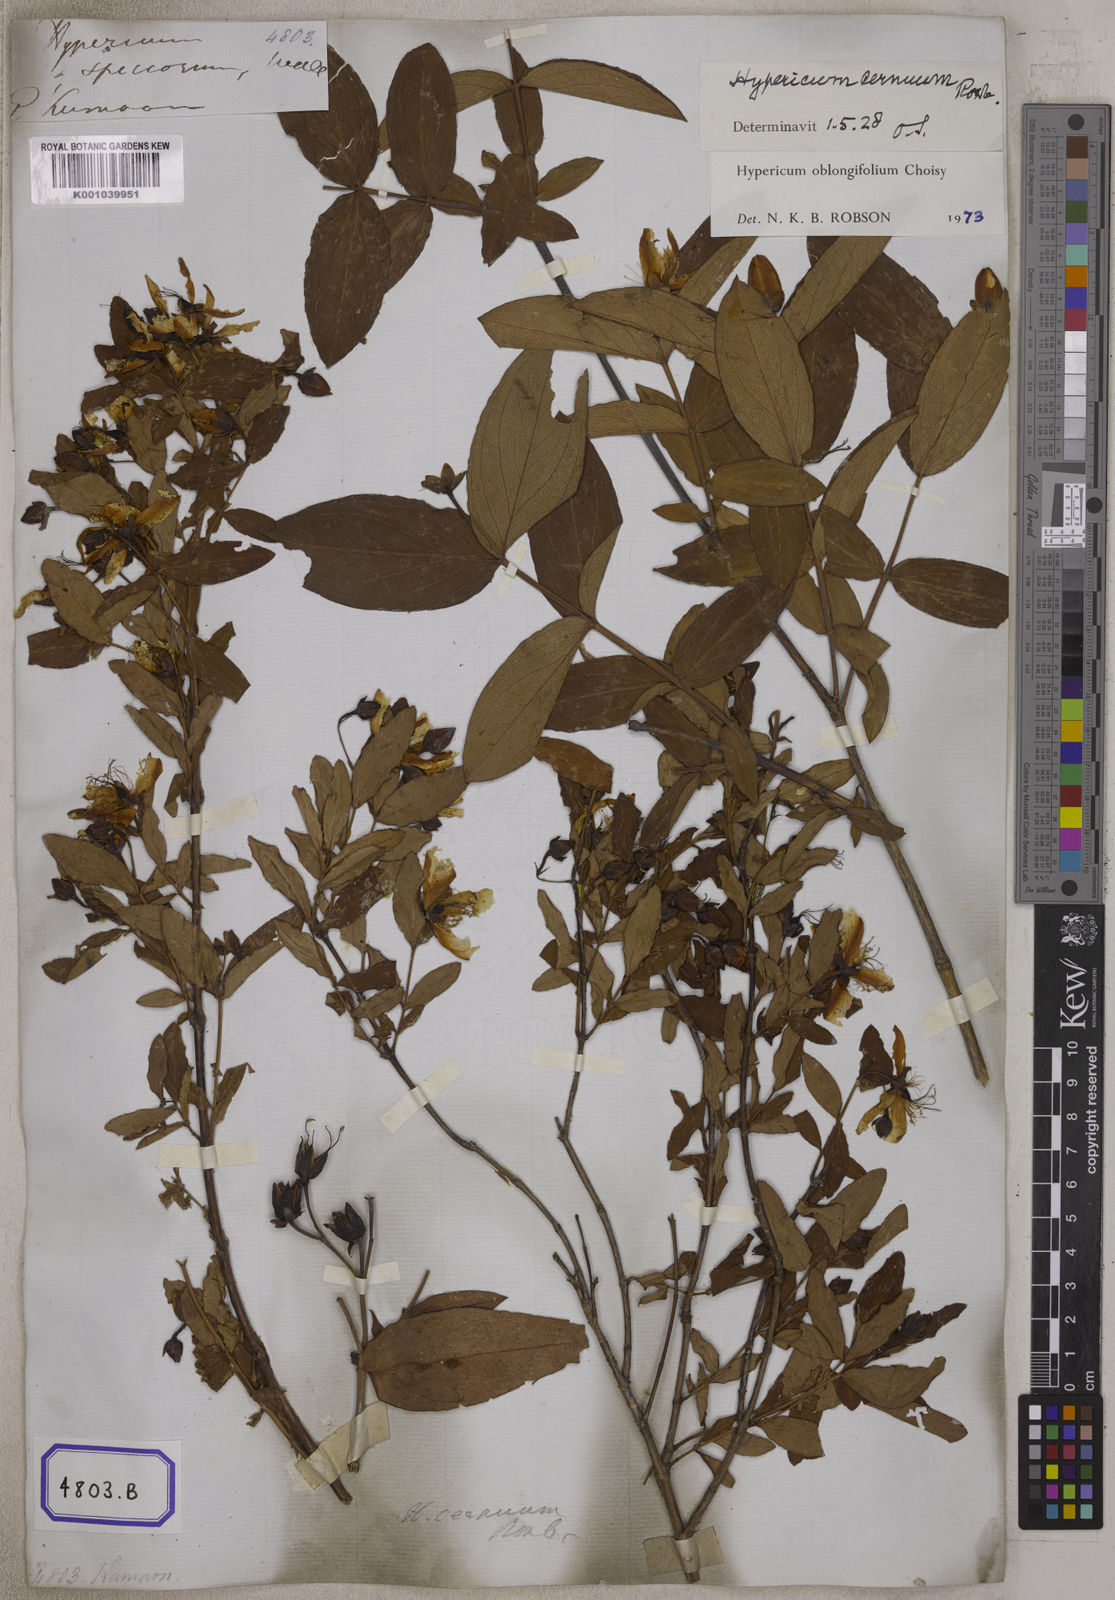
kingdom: Plantae
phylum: Tracheophyta
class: Magnoliopsida
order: Malpighiales
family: Hypericaceae
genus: Hypericum
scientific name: Hypericum oblongifolium
